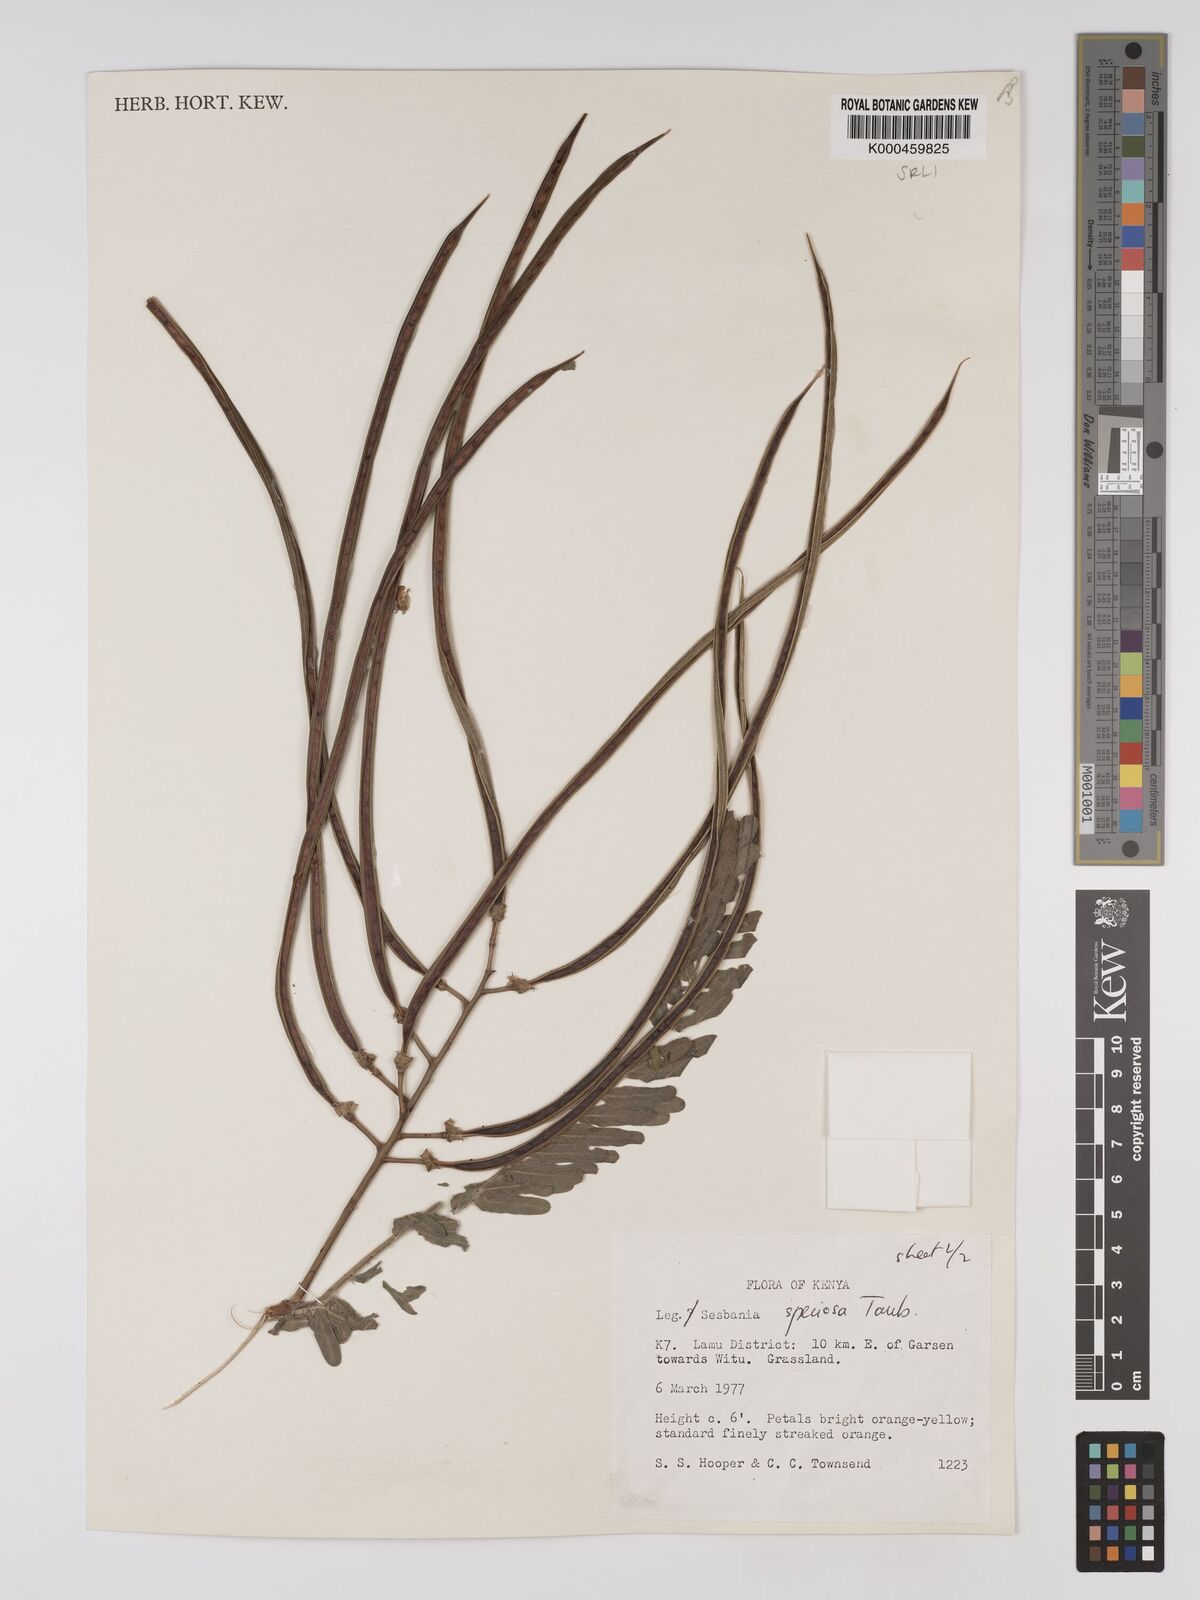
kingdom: Plantae
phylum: Tracheophyta
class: Magnoliopsida
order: Fabales
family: Fabaceae
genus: Sesbania
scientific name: Sesbania
